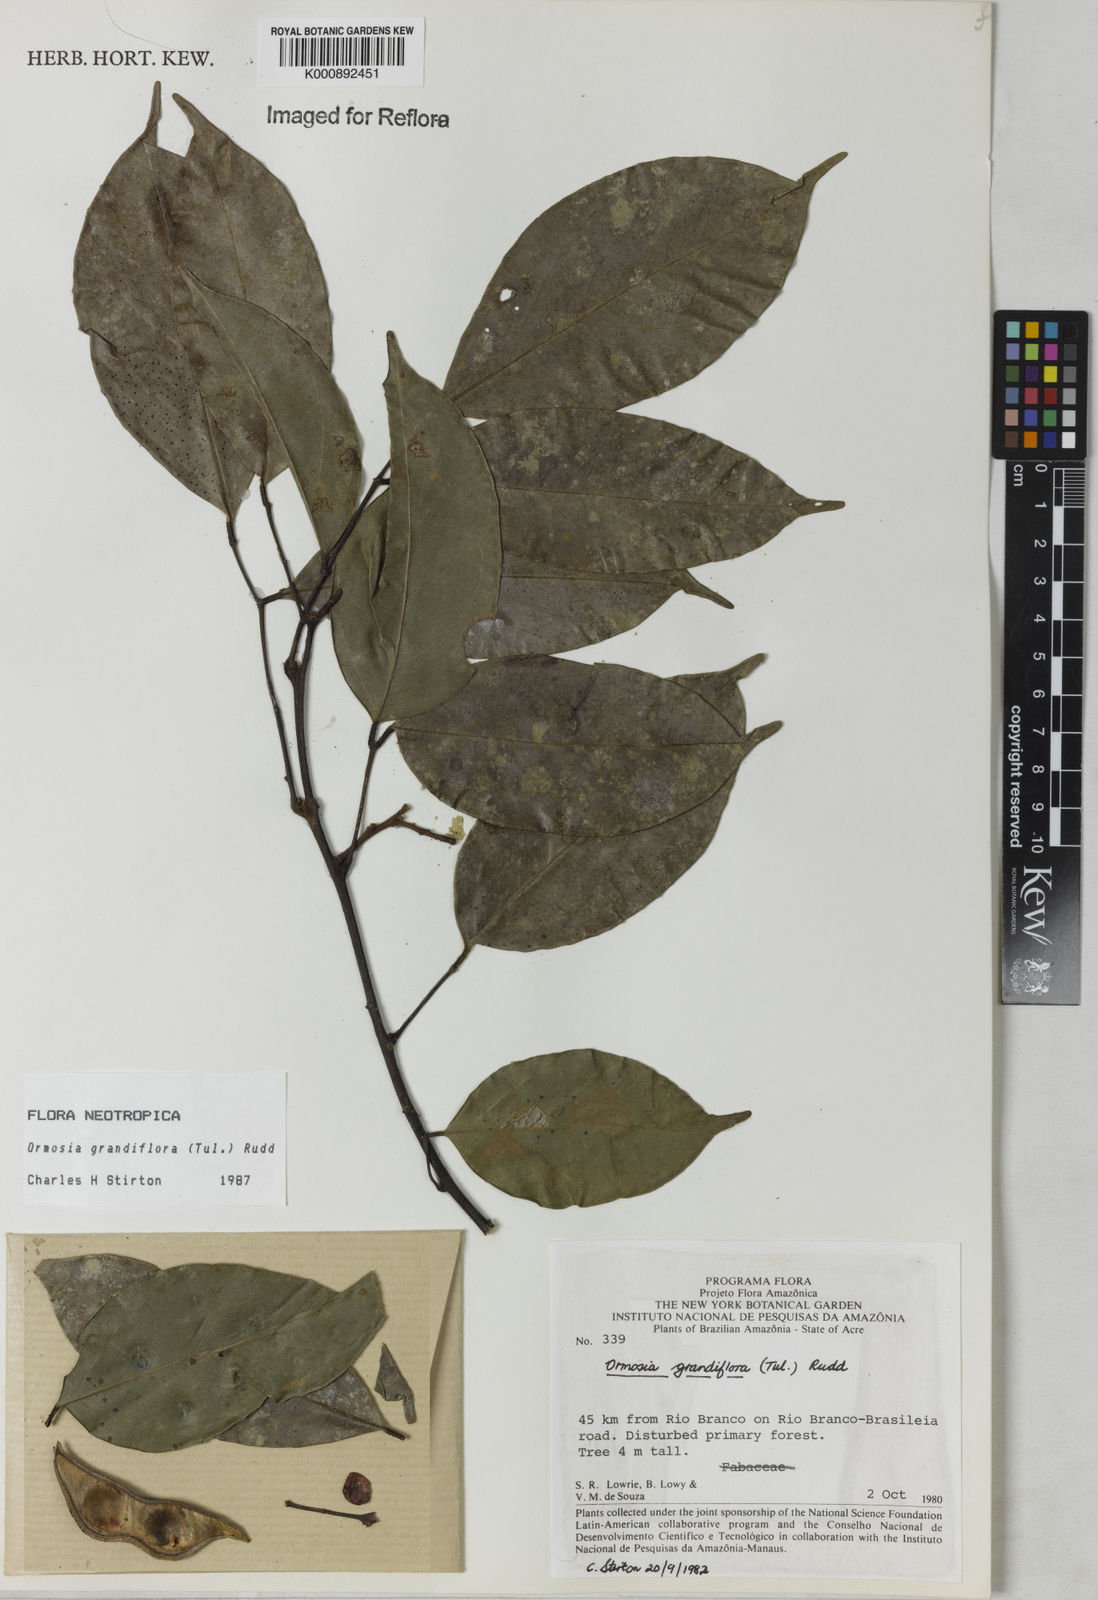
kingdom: Plantae
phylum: Tracheophyta
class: Magnoliopsida
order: Fabales
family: Fabaceae
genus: Ormosia
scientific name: Ormosia grandiflora
